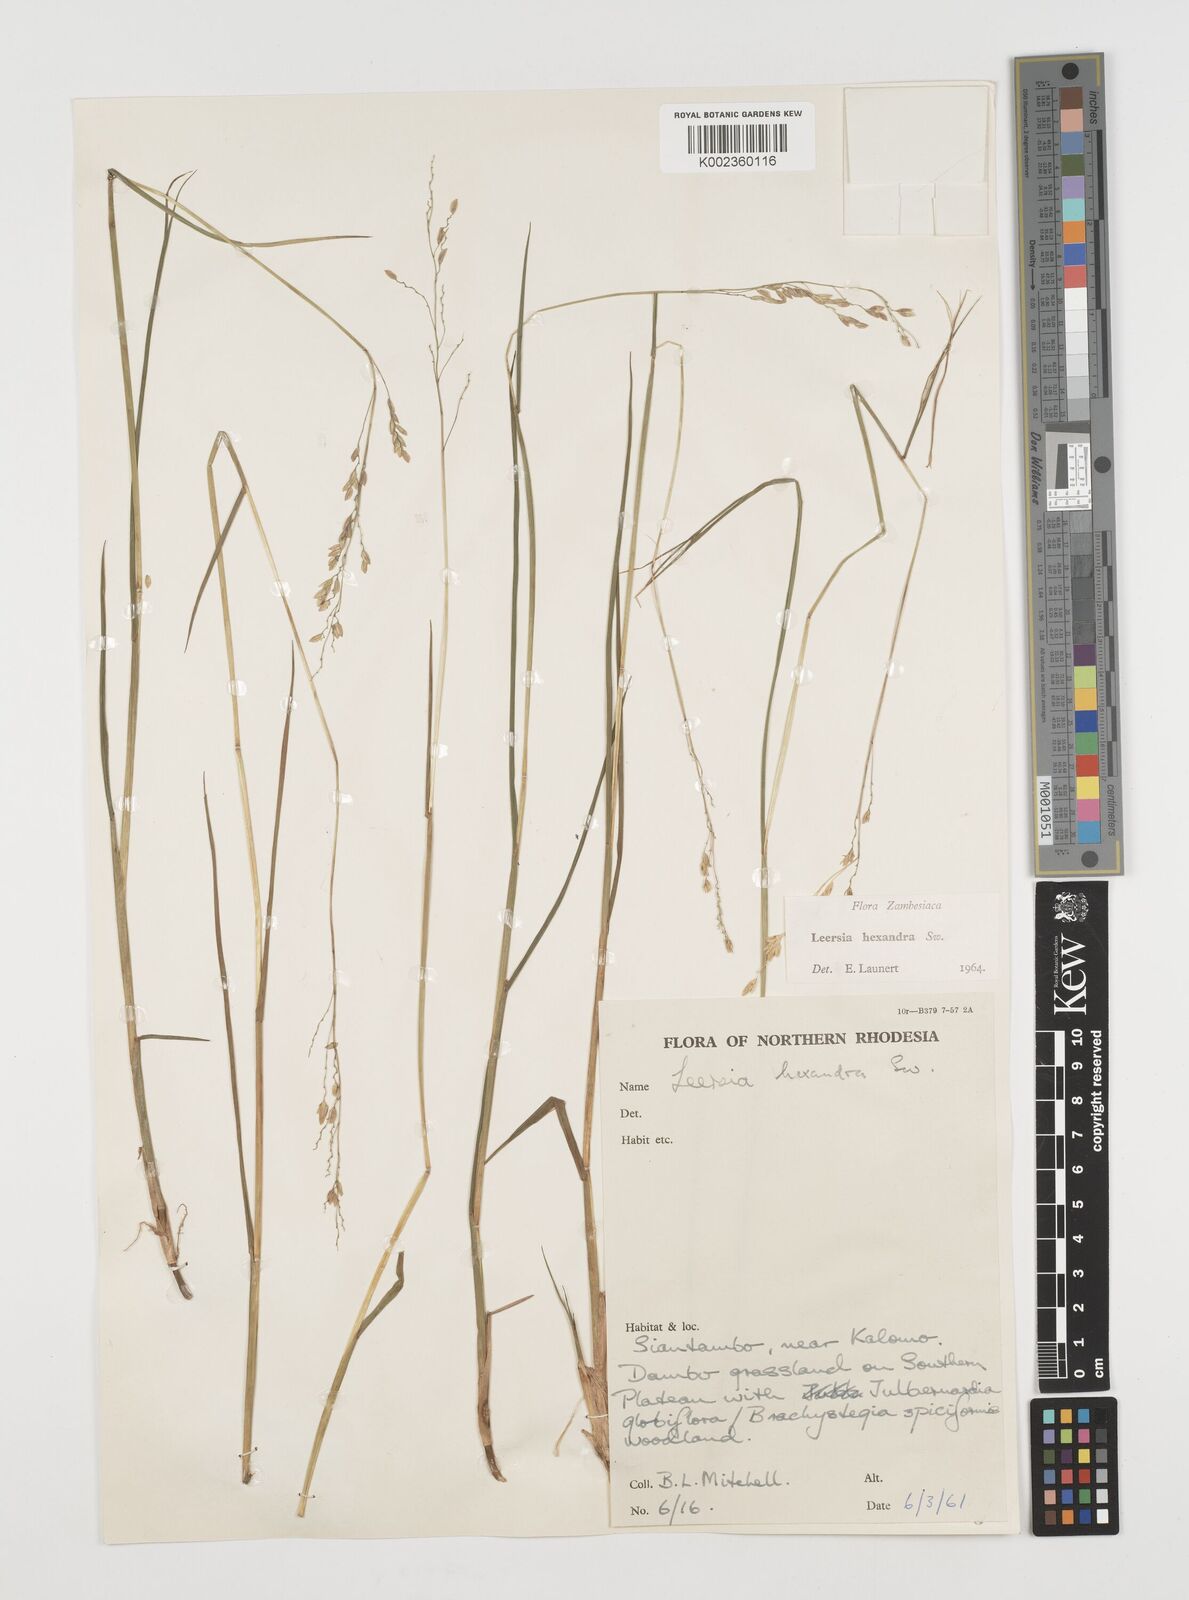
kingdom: Plantae
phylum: Tracheophyta
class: Liliopsida
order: Poales
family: Poaceae
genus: Leersia
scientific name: Leersia hexandra
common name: Southern cut grass
